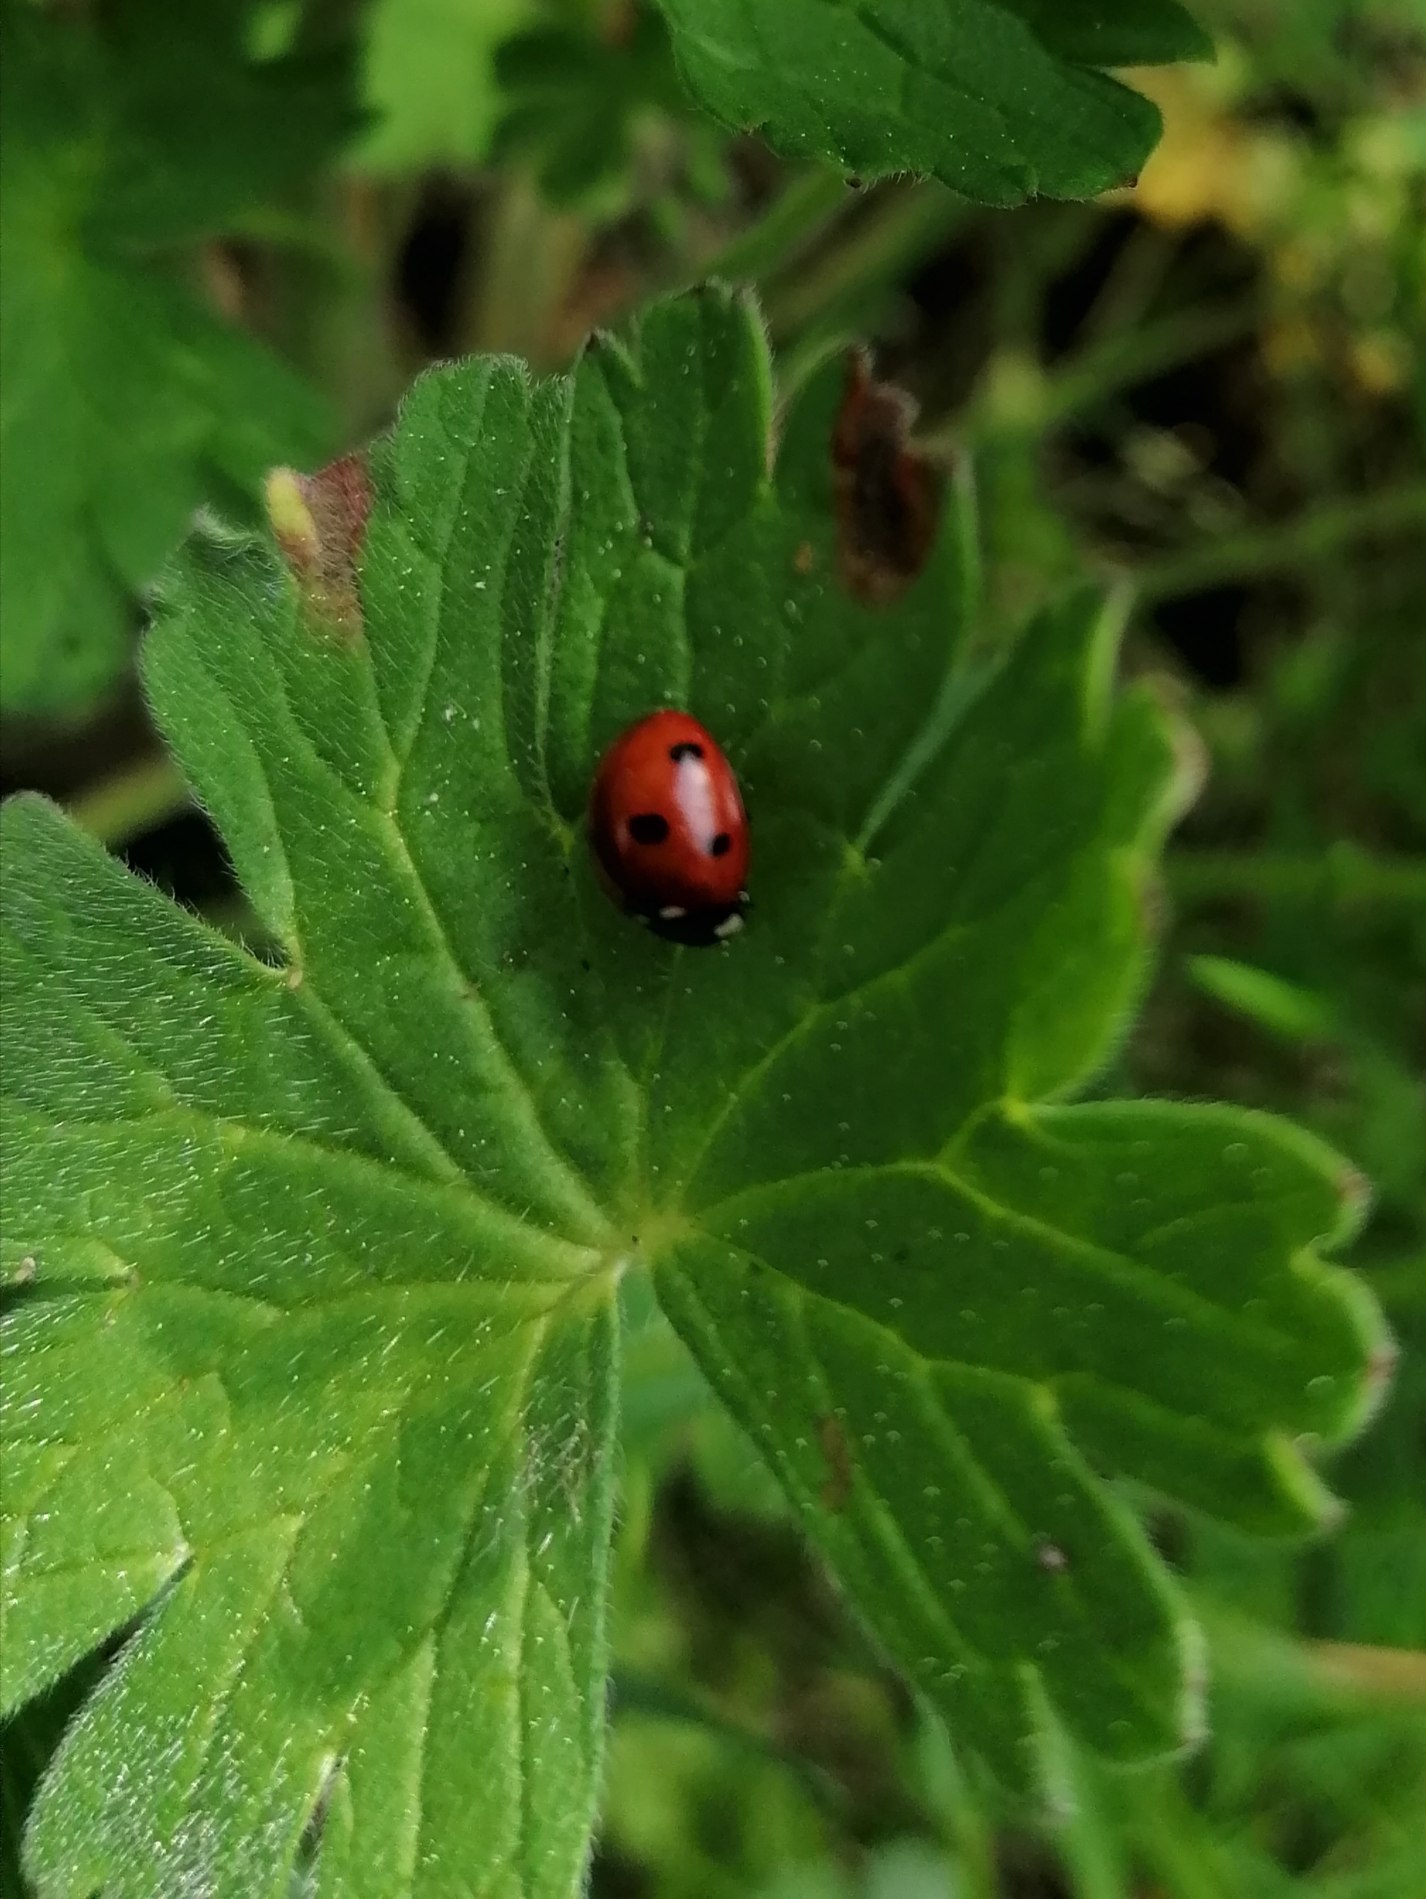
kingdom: Animalia
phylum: Arthropoda
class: Insecta
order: Coleoptera
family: Coccinellidae
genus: Coccinella
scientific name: Coccinella septempunctata
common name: Syvplettet mariehøne
